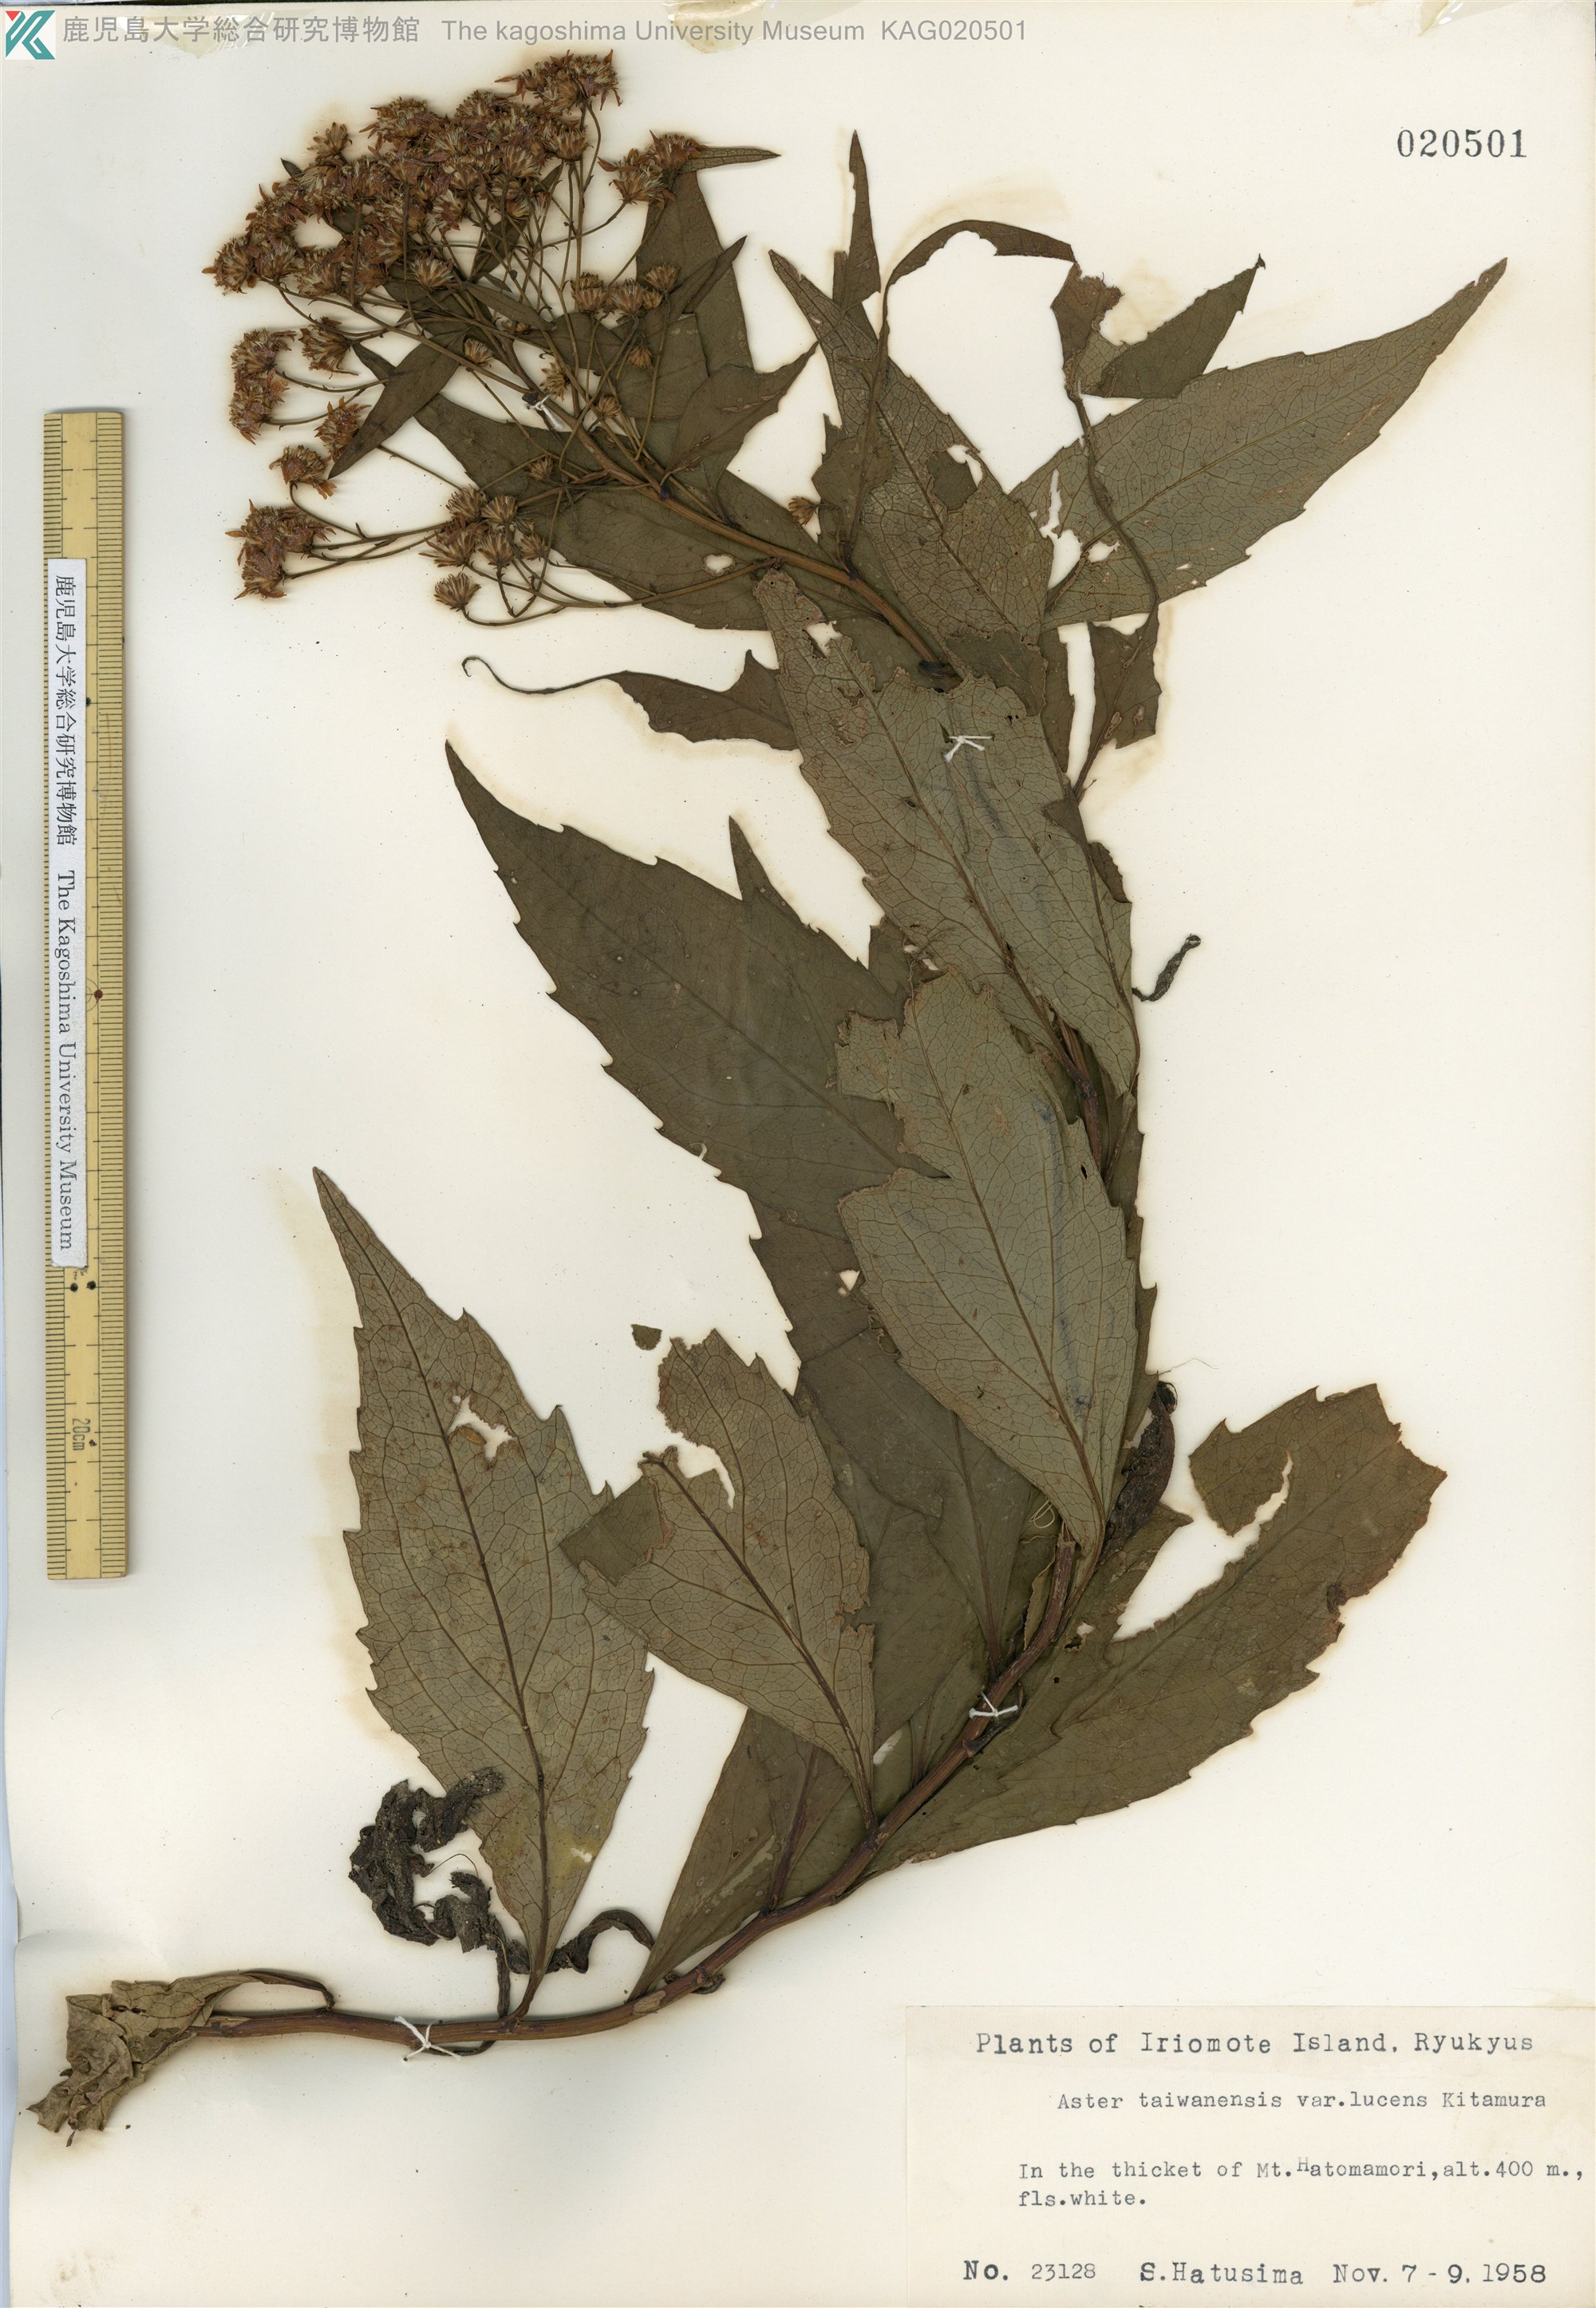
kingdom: Plantae
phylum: Tracheophyta
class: Magnoliopsida
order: Asterales
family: Asteraceae
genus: Aster
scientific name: Aster taiwanensis
